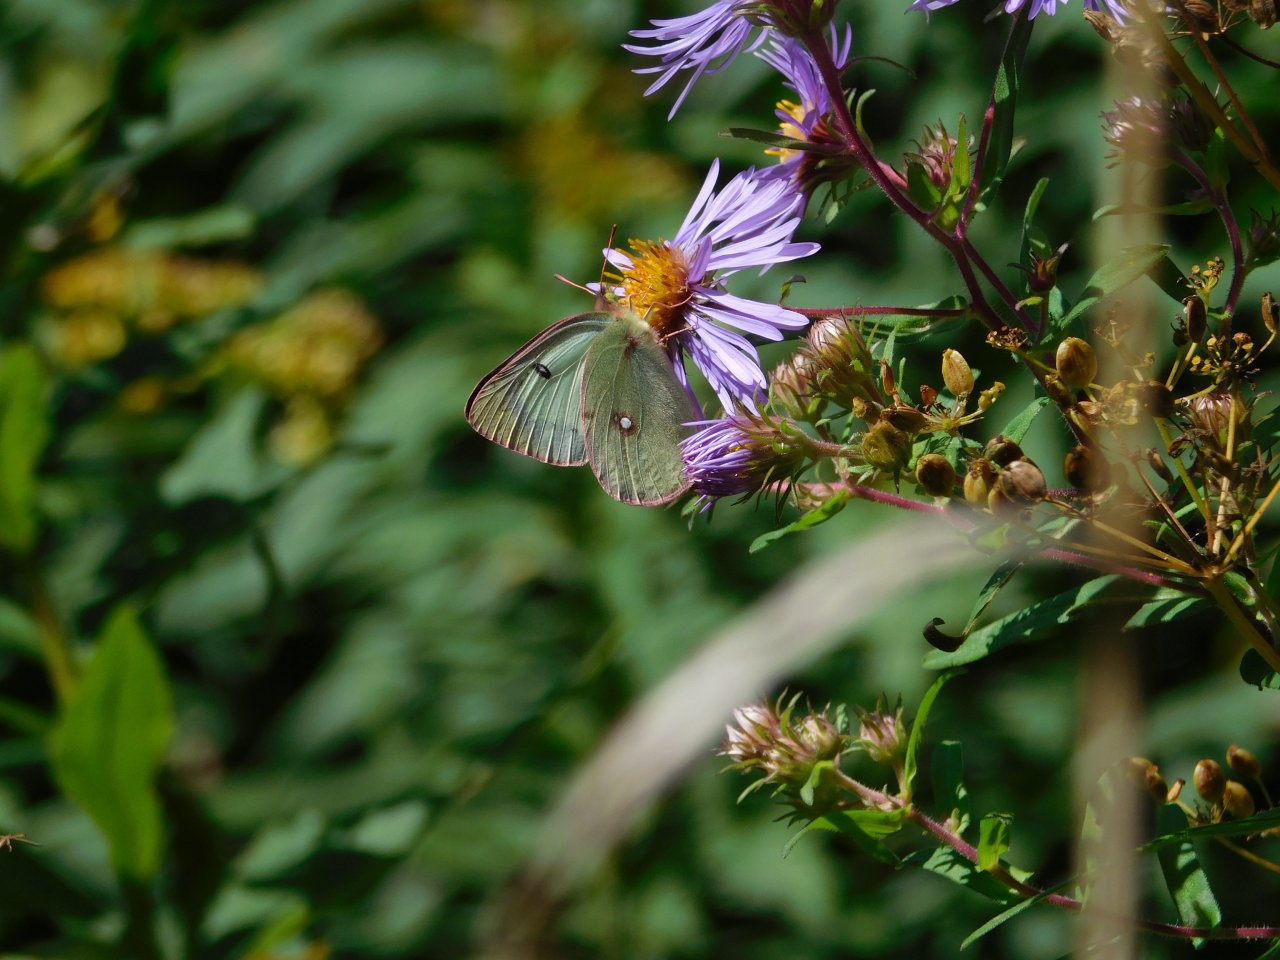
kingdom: Animalia
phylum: Arthropoda
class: Insecta
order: Lepidoptera
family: Pieridae
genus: Colias
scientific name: Colias philodice
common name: Clouded Sulphur
